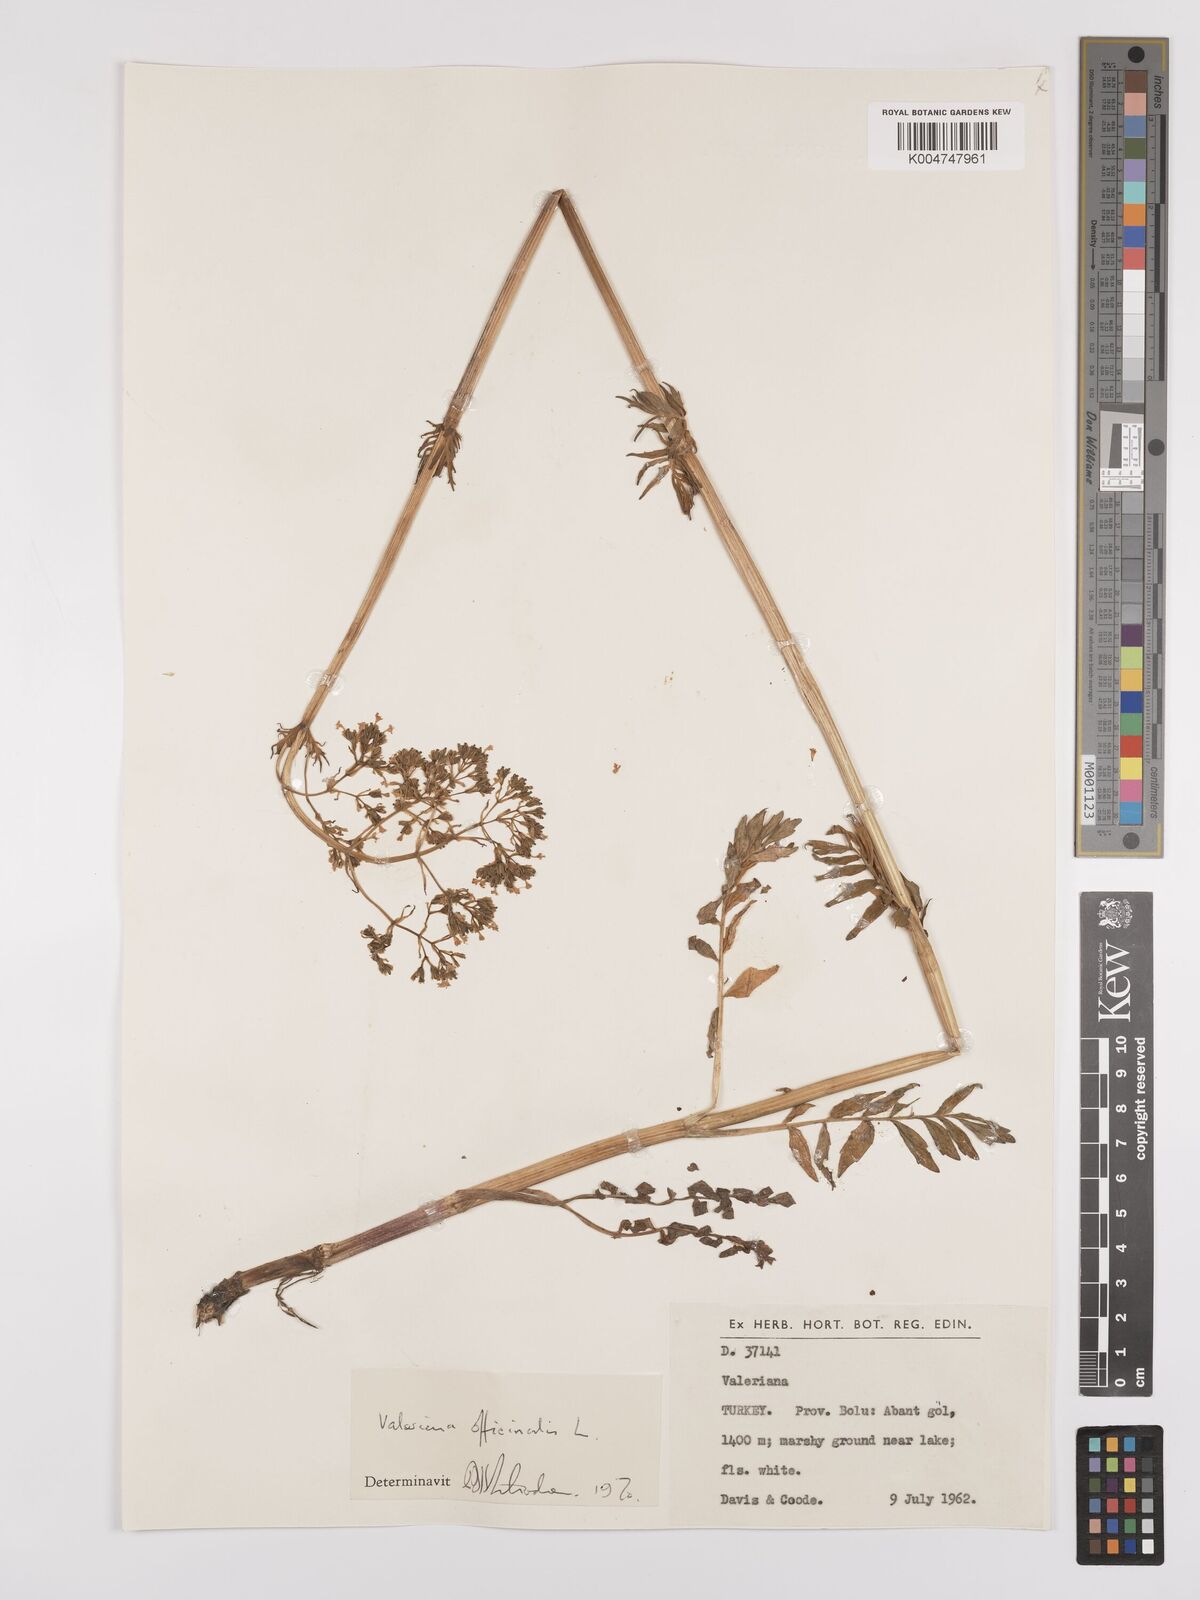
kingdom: Plantae
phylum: Tracheophyta
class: Magnoliopsida
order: Dipsacales
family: Caprifoliaceae
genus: Valeriana
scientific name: Valeriana officinalis
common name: Common valerian
